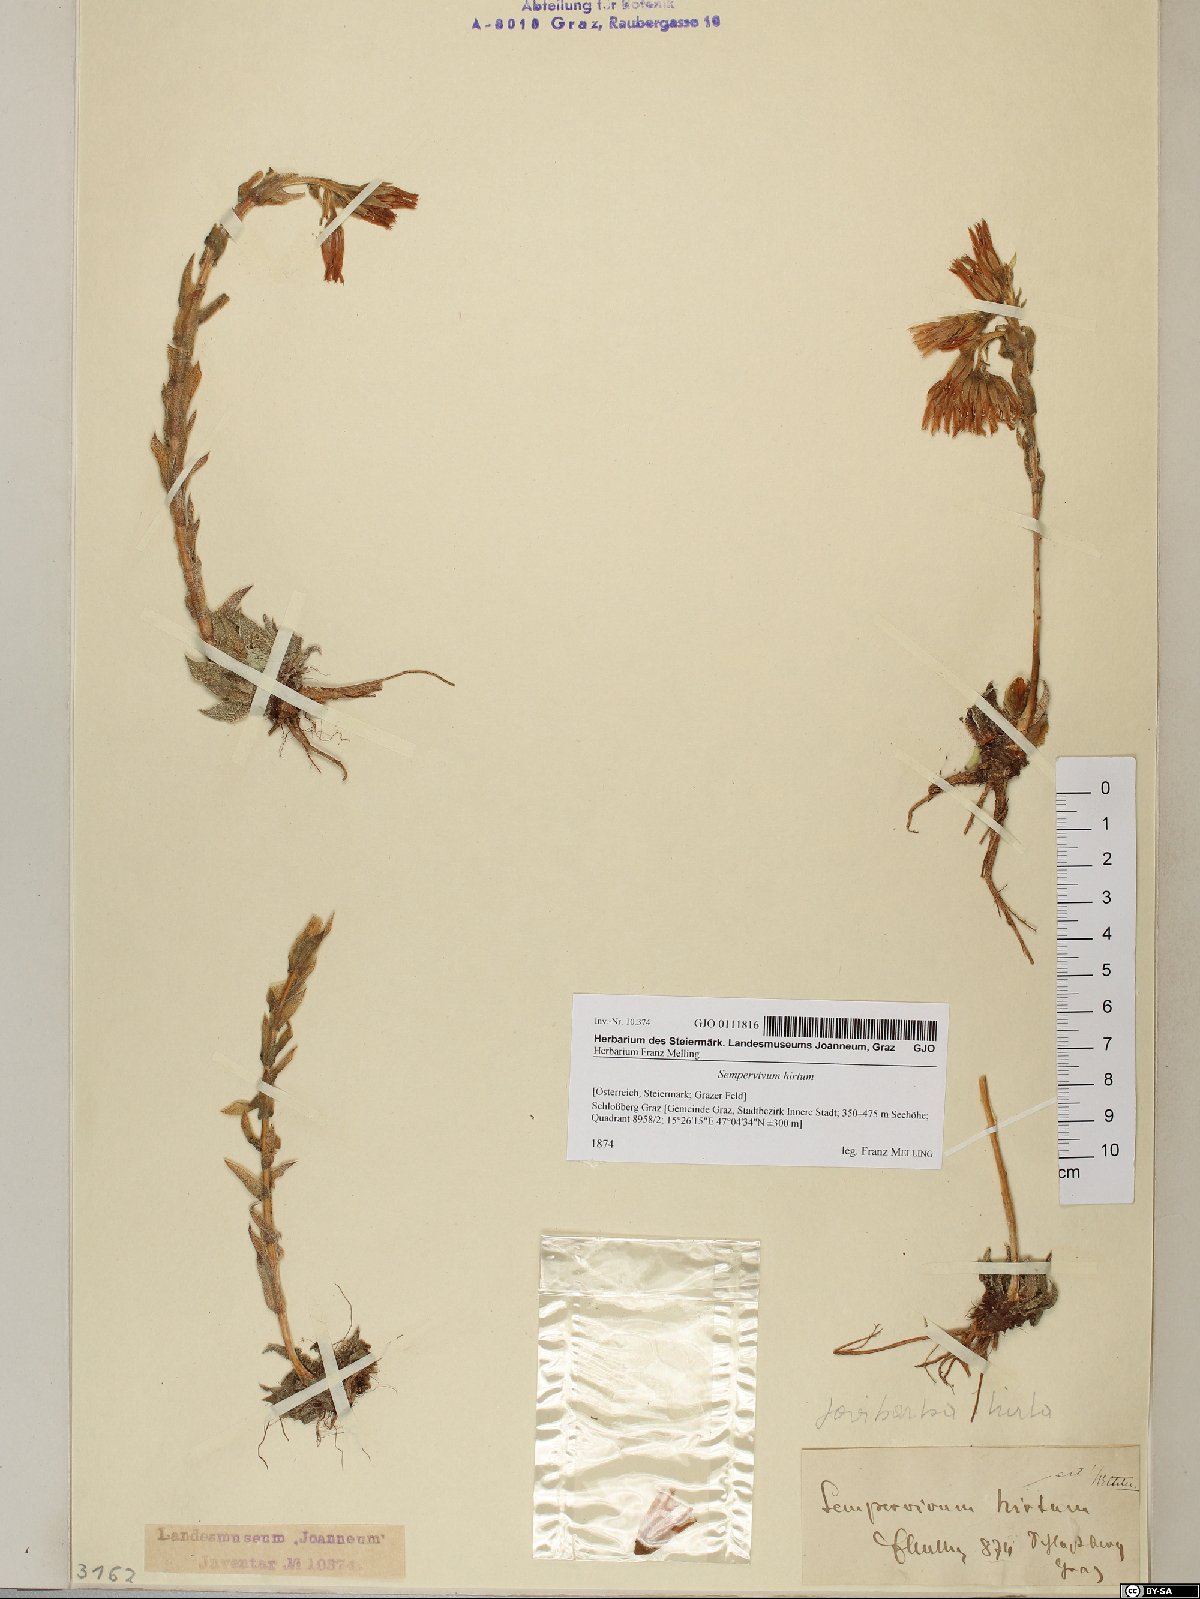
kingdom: Plantae
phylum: Tracheophyta
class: Magnoliopsida
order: Saxifragales
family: Crassulaceae
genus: Sempervivum
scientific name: Sempervivum globiferum
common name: Rolling hen-and-chicks
